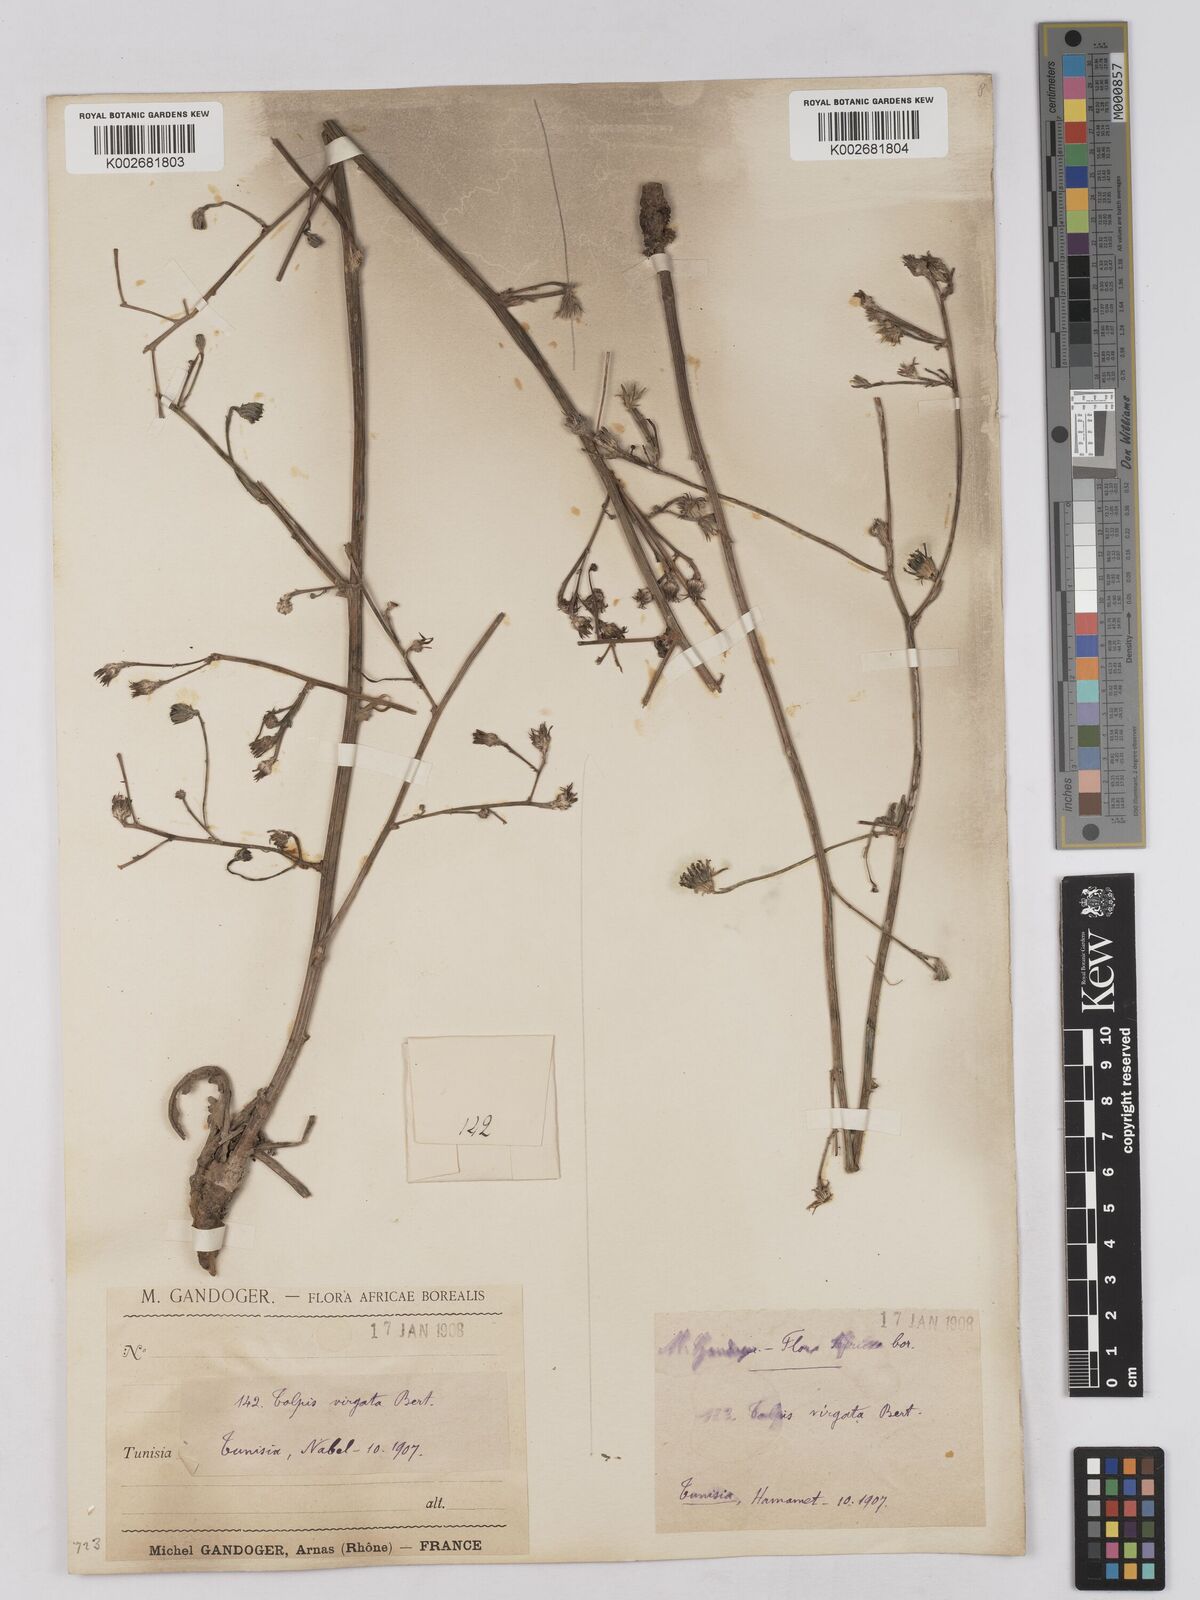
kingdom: Plantae
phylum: Tracheophyta
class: Magnoliopsida
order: Asterales
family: Asteraceae
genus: Tolpis
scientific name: Tolpis virgata
